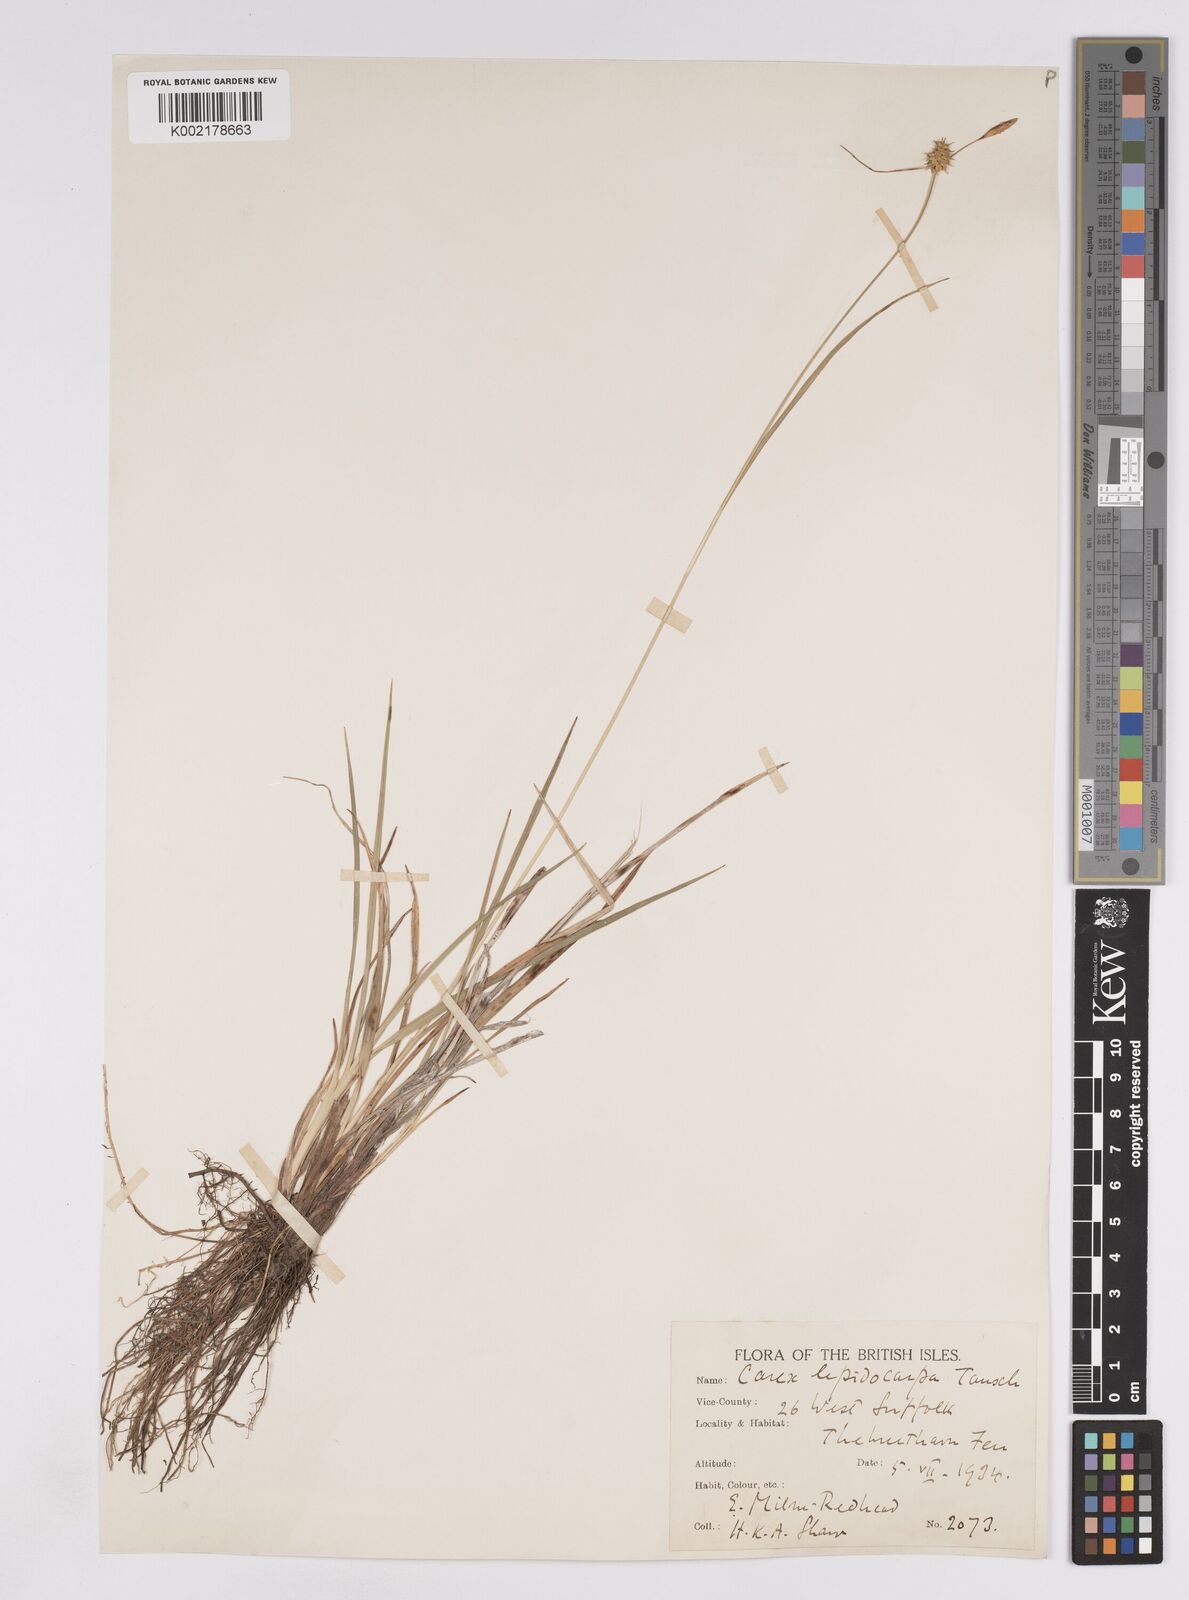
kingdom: Plantae
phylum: Tracheophyta
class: Liliopsida
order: Poales
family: Cyperaceae
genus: Carex
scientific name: Carex lepidocarpa
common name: Long-stalked yellow-sedge
